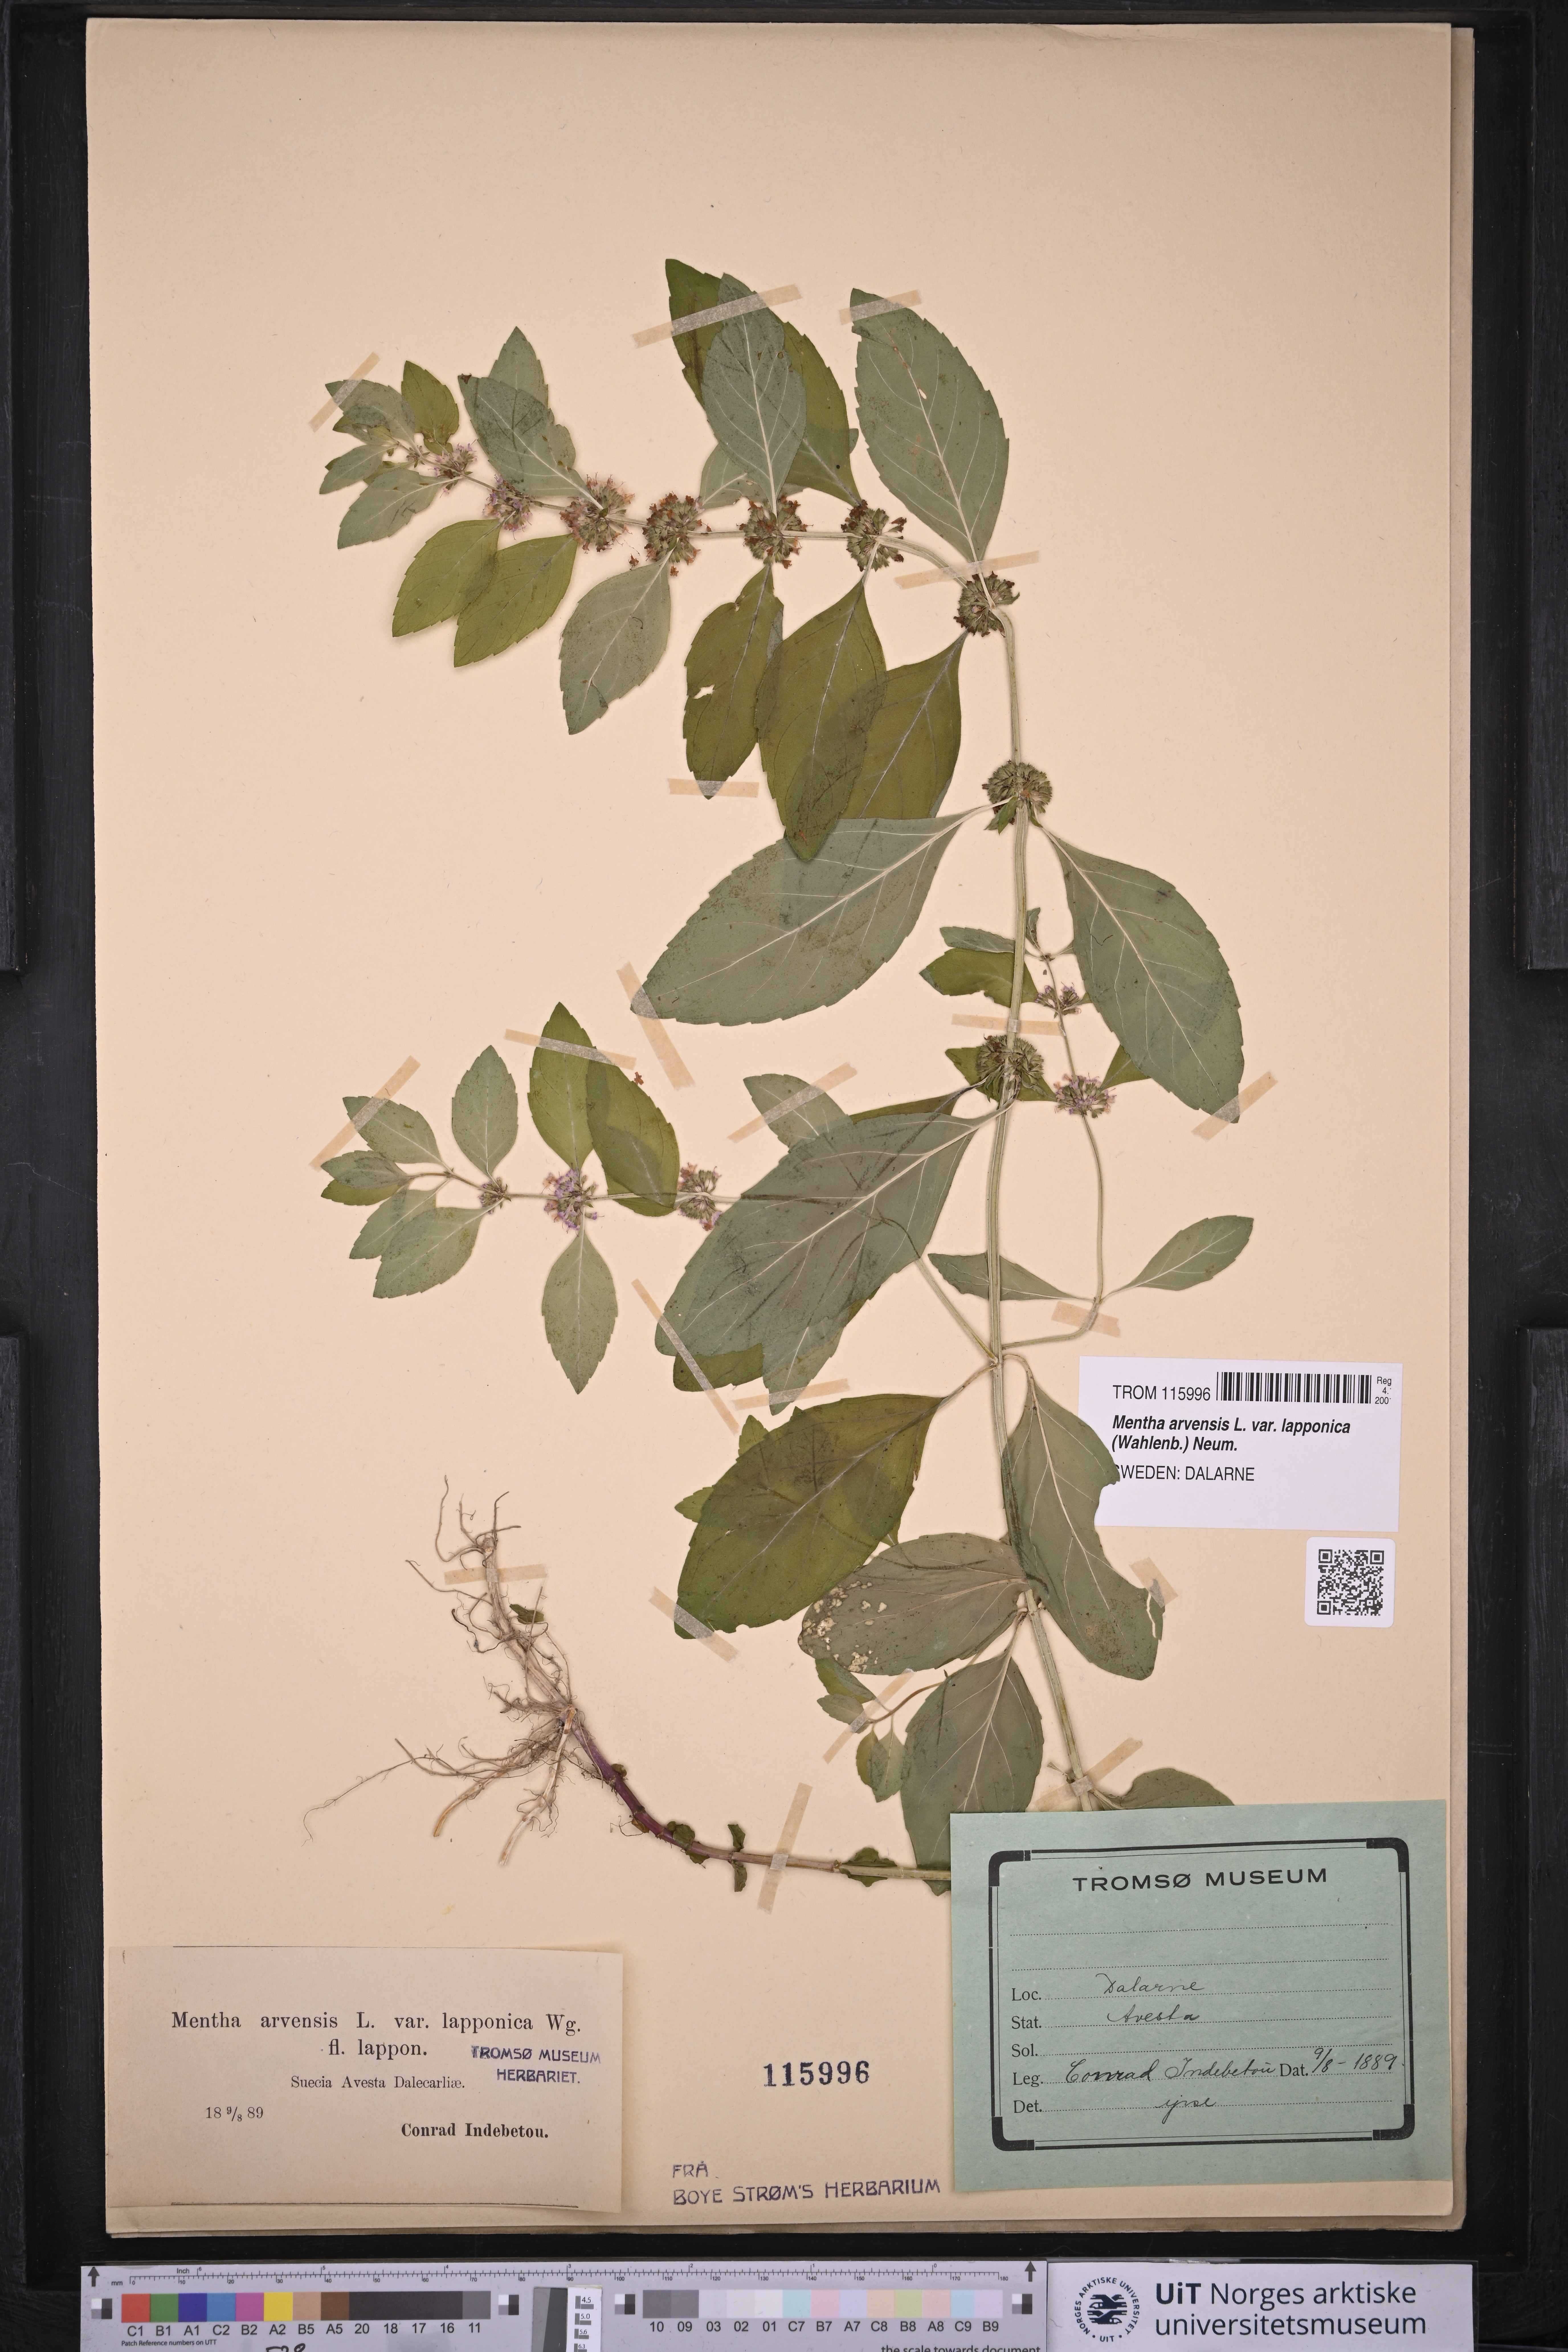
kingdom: Plantae
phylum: Tracheophyta
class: Magnoliopsida
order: Lamiales
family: Lamiaceae
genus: Mentha
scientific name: Mentha arvensis
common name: Corn mint
